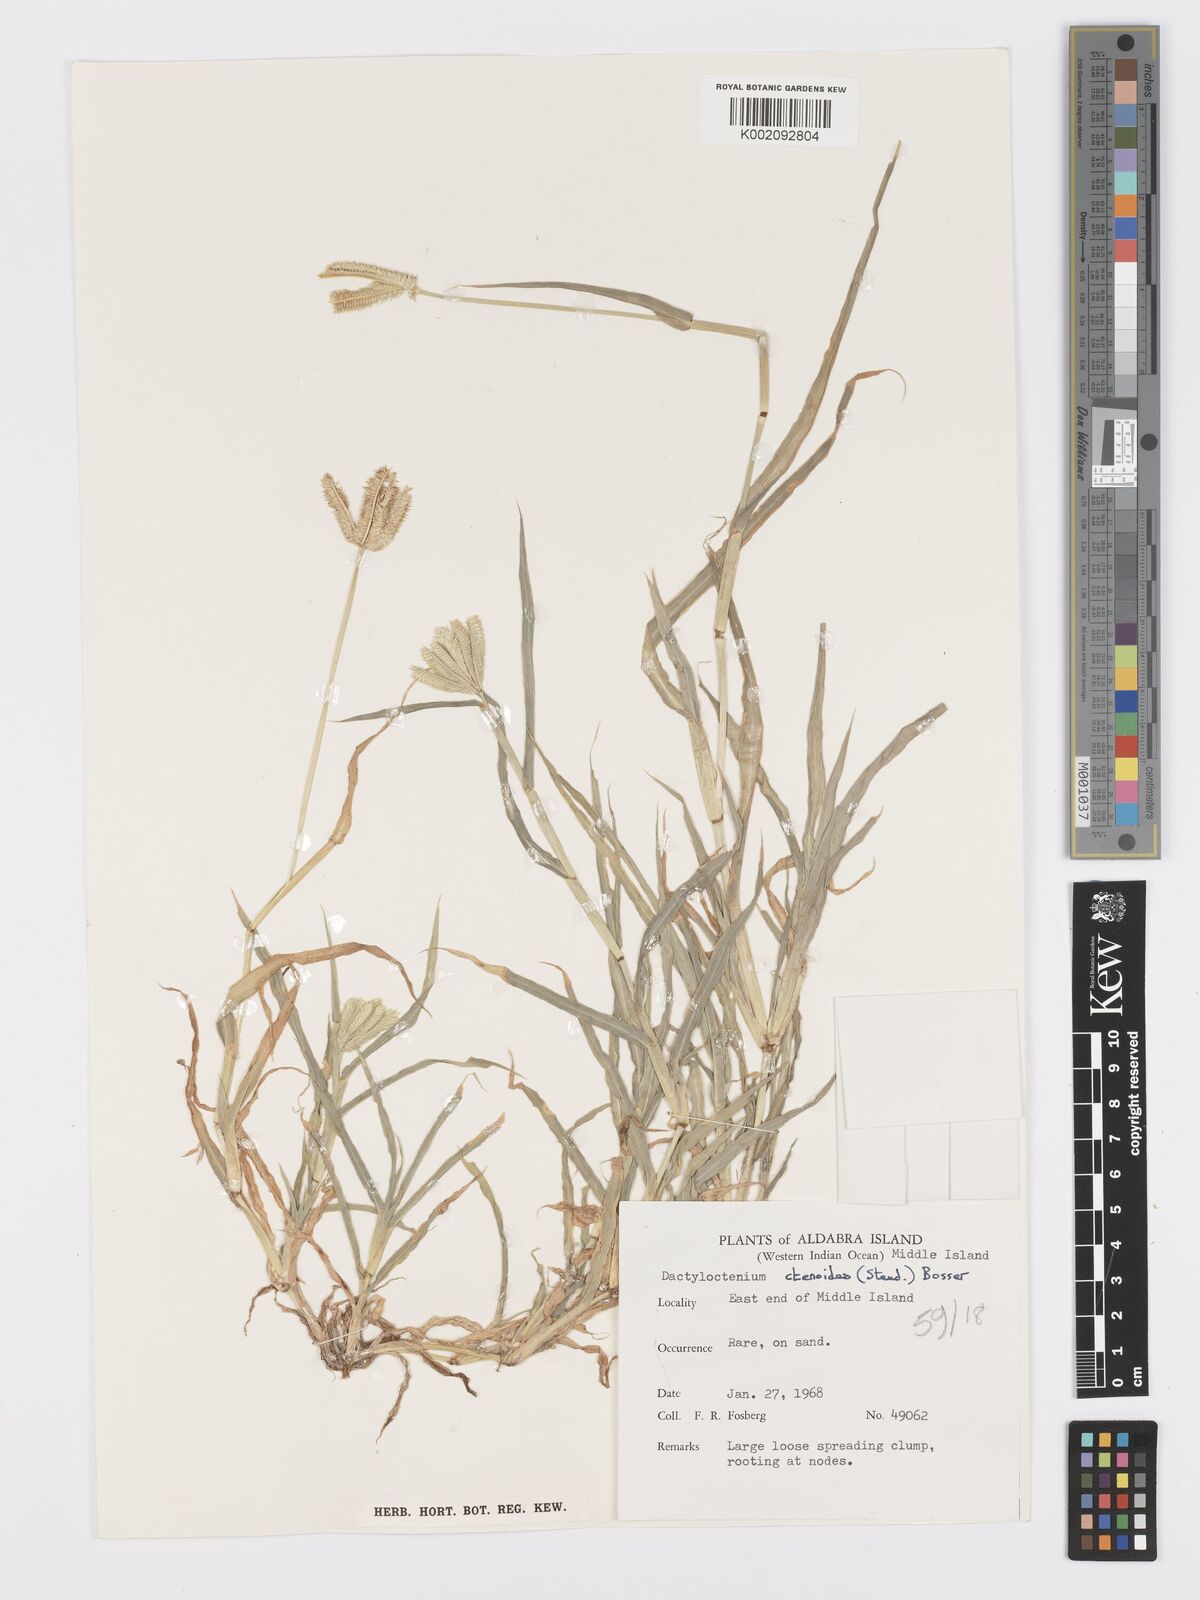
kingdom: Plantae
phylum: Tracheophyta
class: Liliopsida
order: Poales
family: Poaceae
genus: Dactyloctenium
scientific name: Dactyloctenium ctenoides
